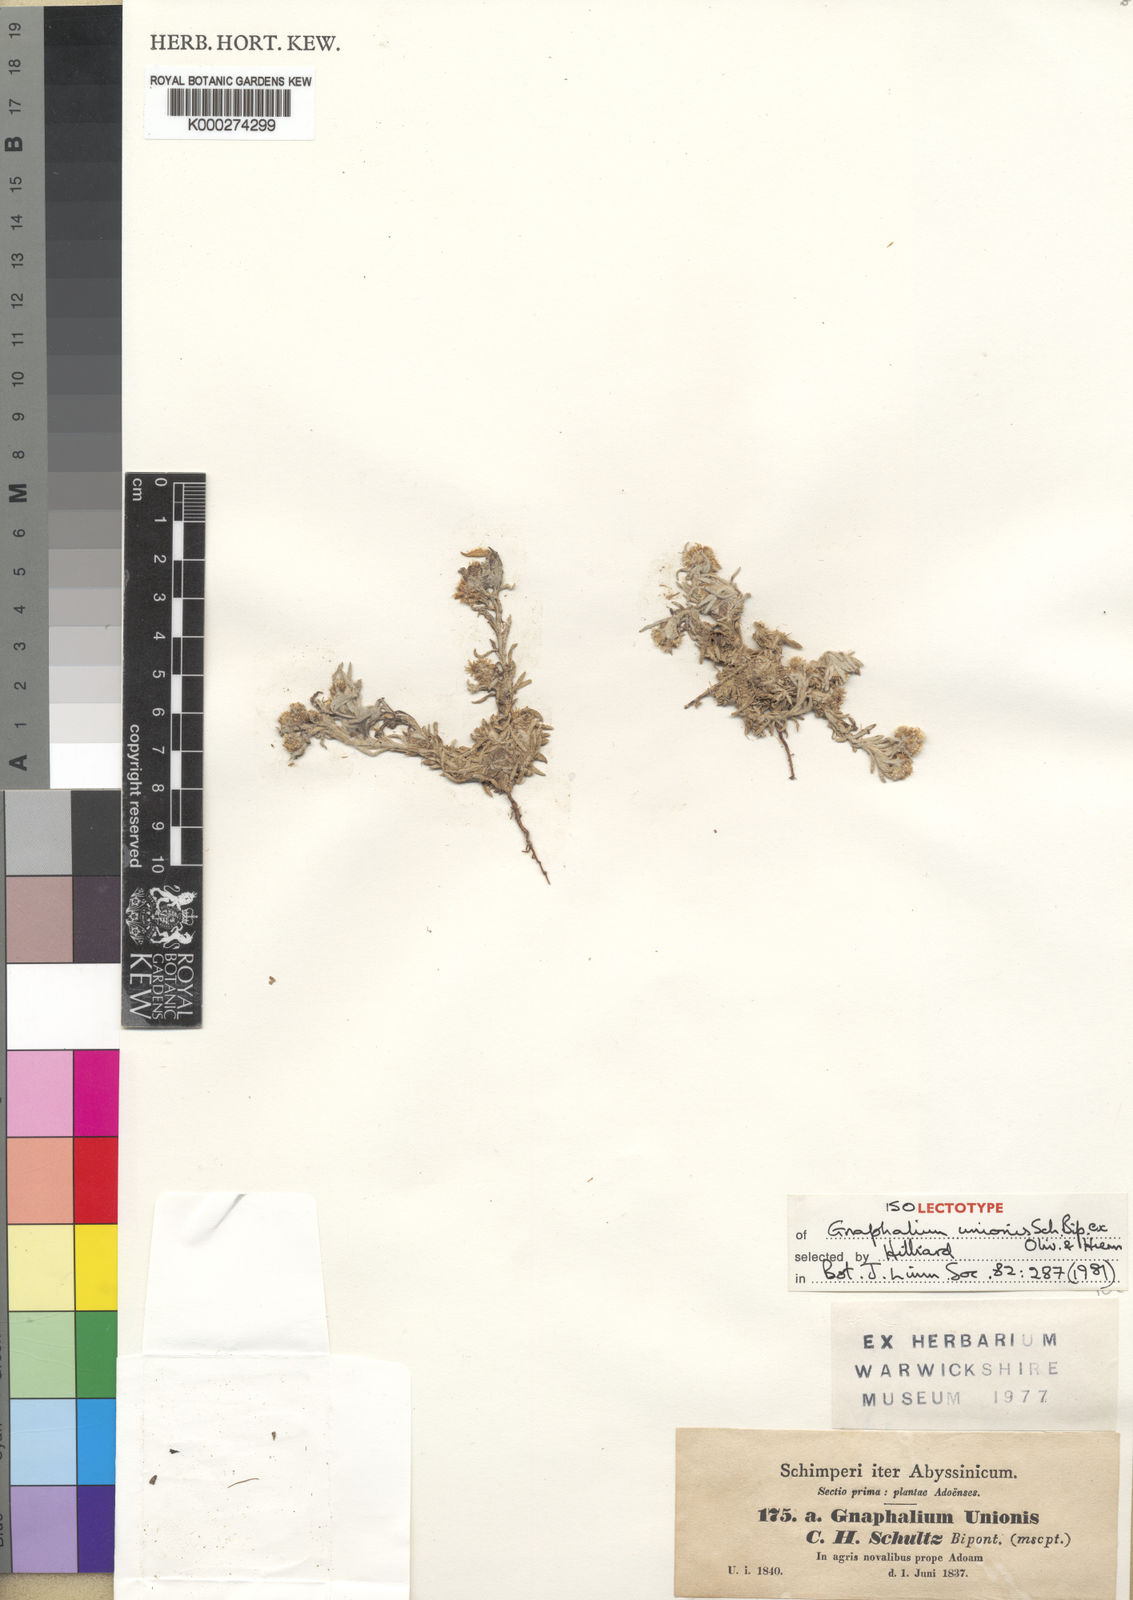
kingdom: Plantae
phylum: Tracheophyta
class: Magnoliopsida
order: Asterales
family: Asteraceae
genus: Gnaphalium
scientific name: Gnaphalium
